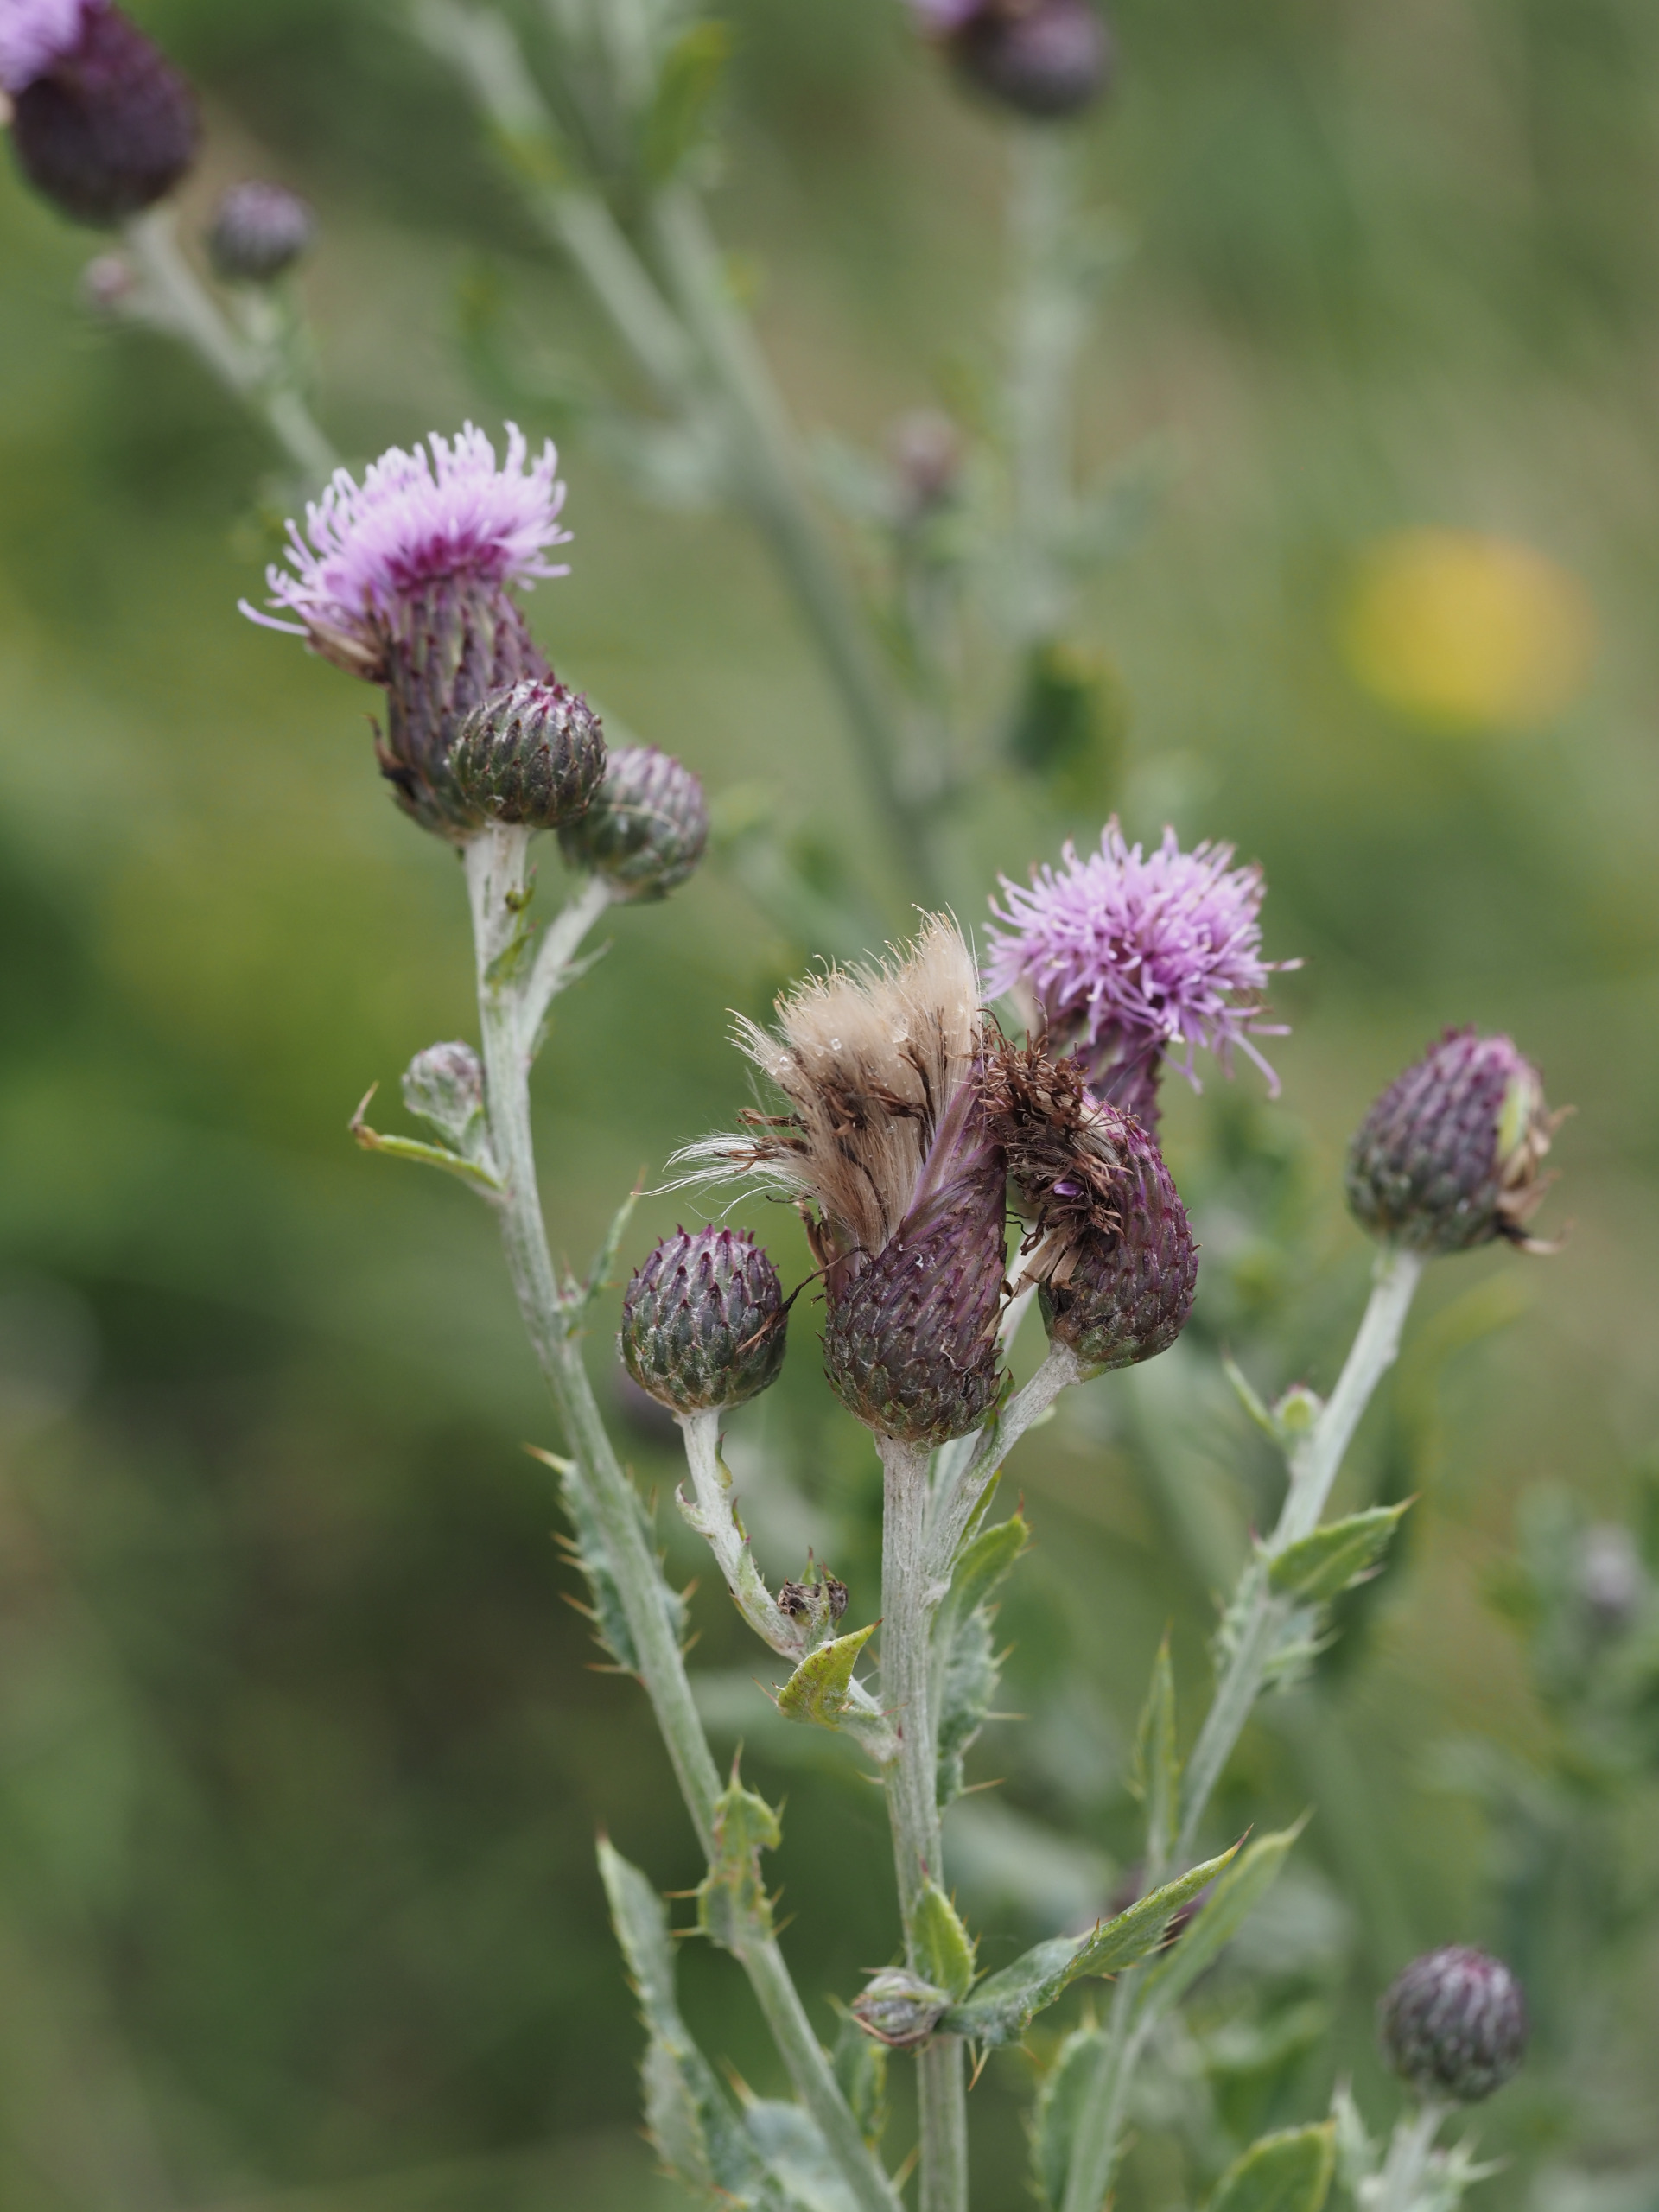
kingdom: Plantae
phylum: Tracheophyta
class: Magnoliopsida
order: Asterales
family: Asteraceae
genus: Cirsium
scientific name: Cirsium arvense
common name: Ager-tidsel
